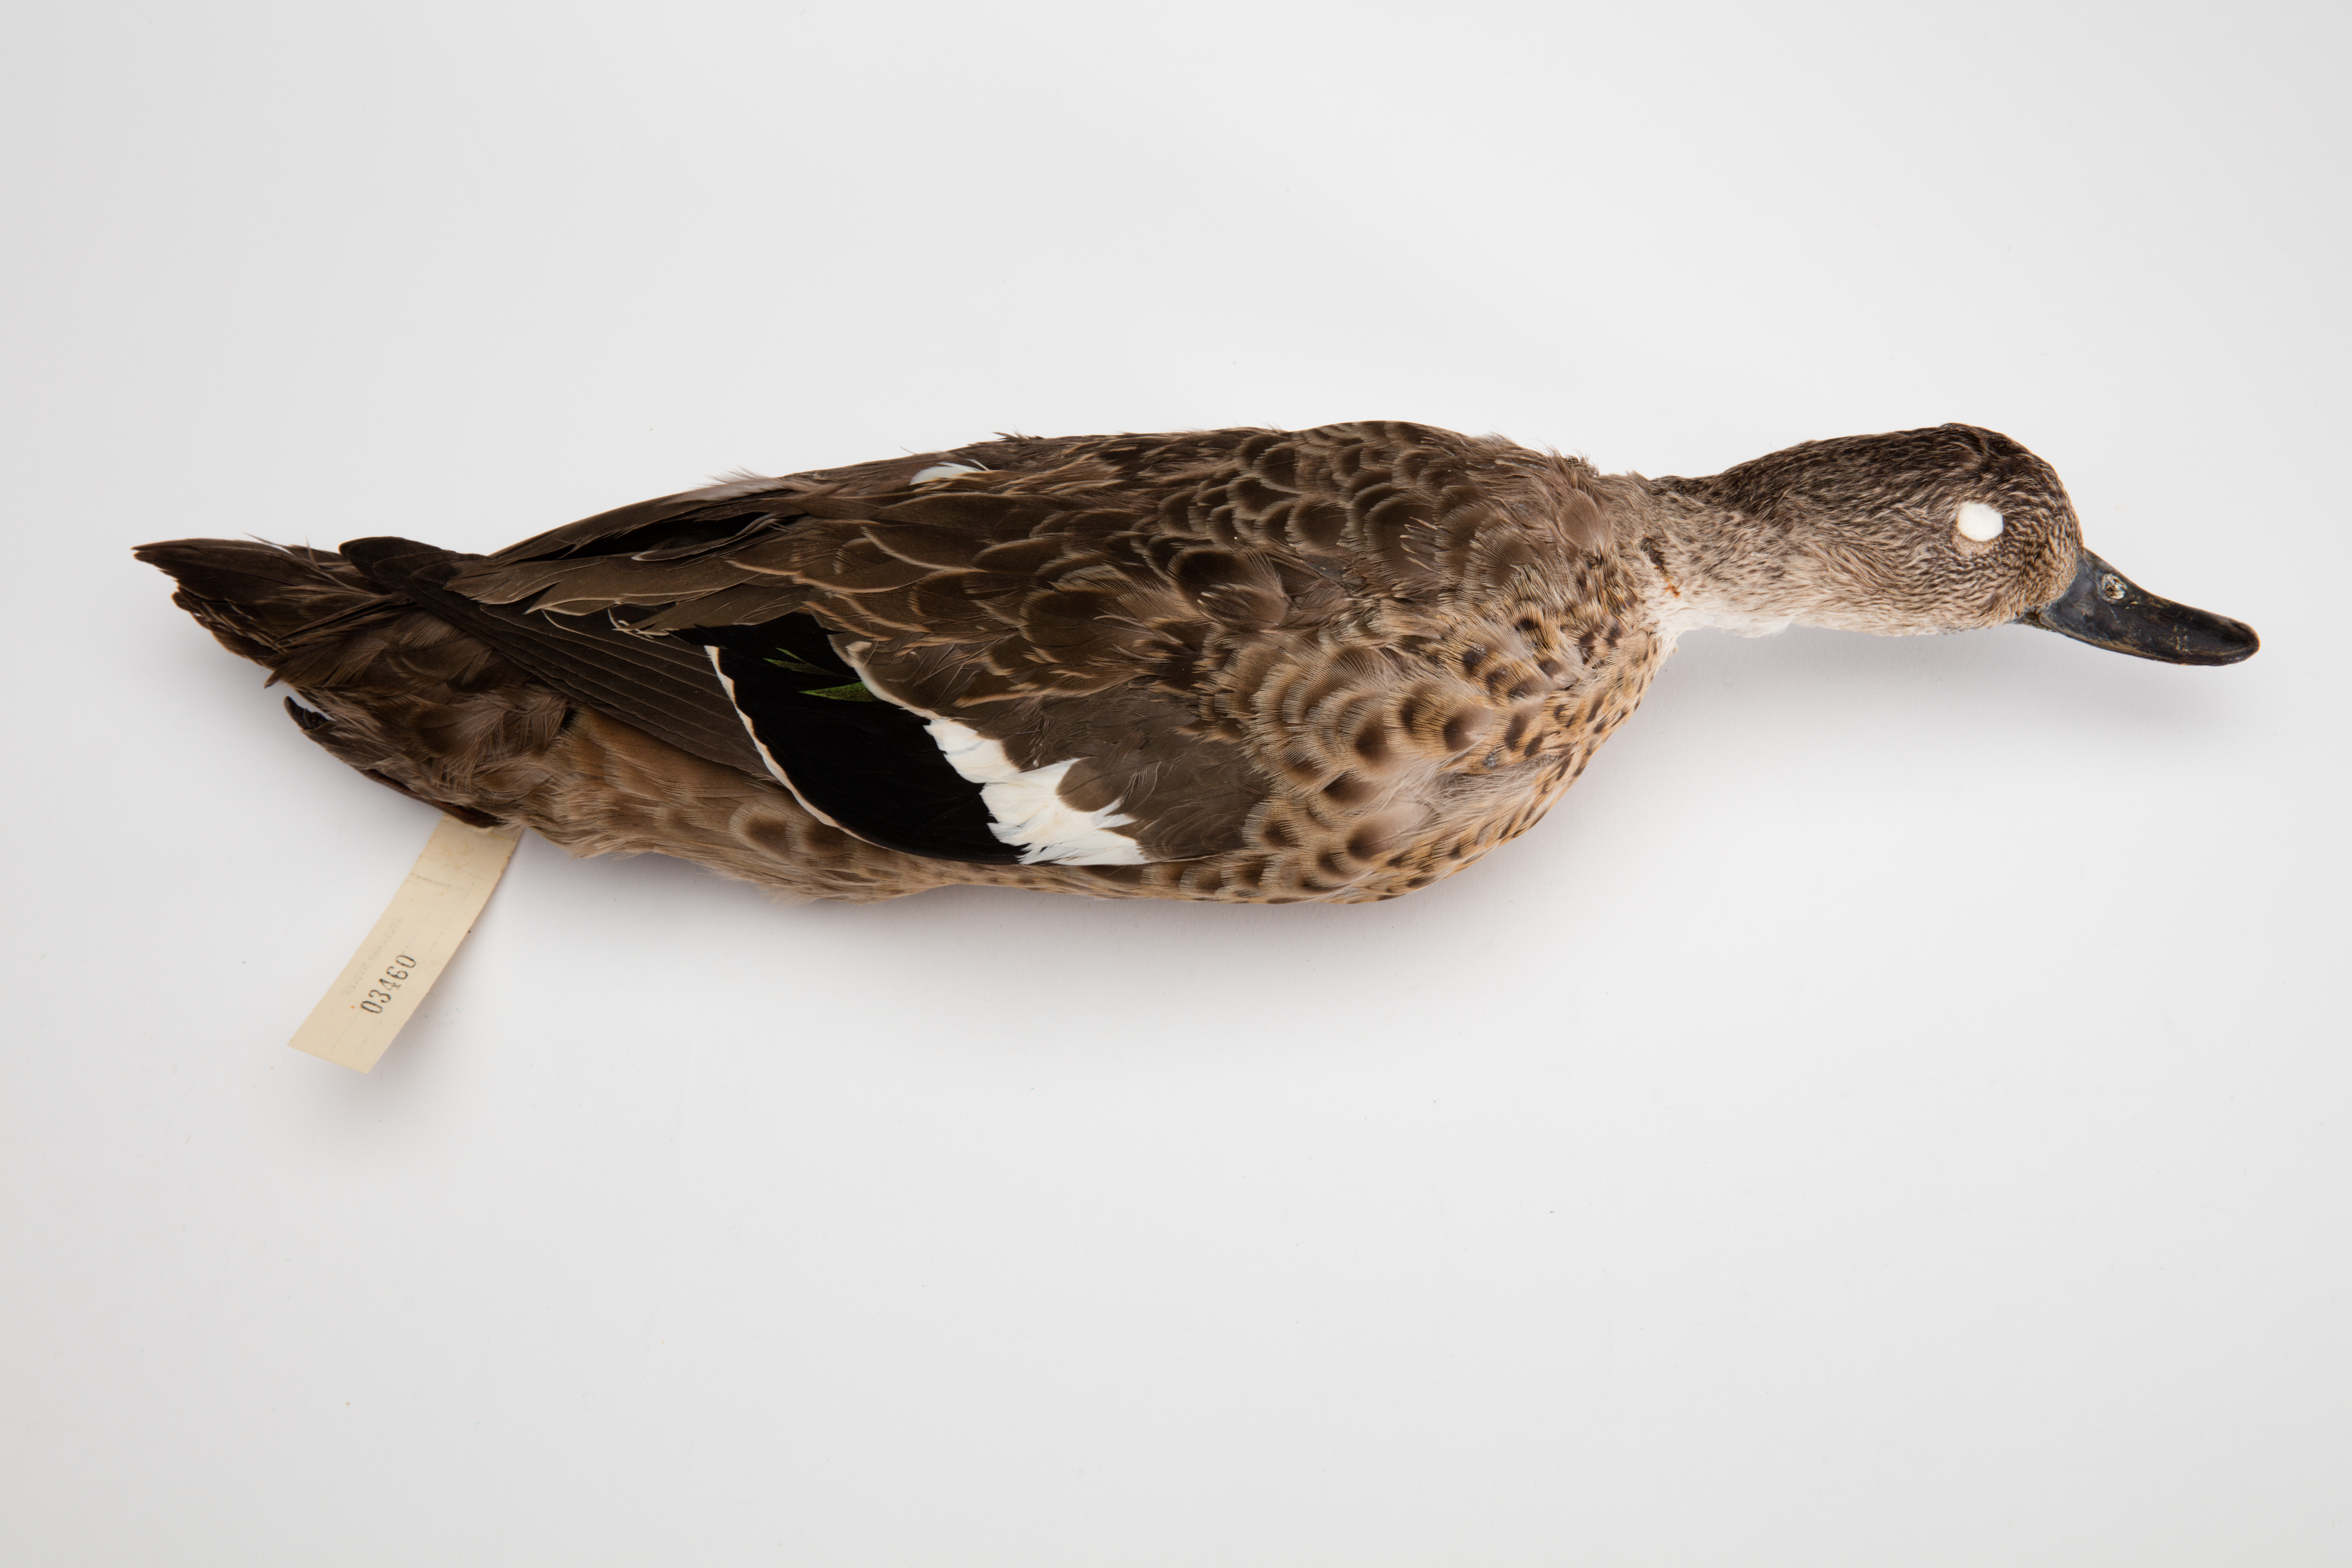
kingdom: Animalia
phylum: Chordata
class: Aves
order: Anseriformes
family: Anatidae
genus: Anas
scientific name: Anas gracilis
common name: Grey teal
